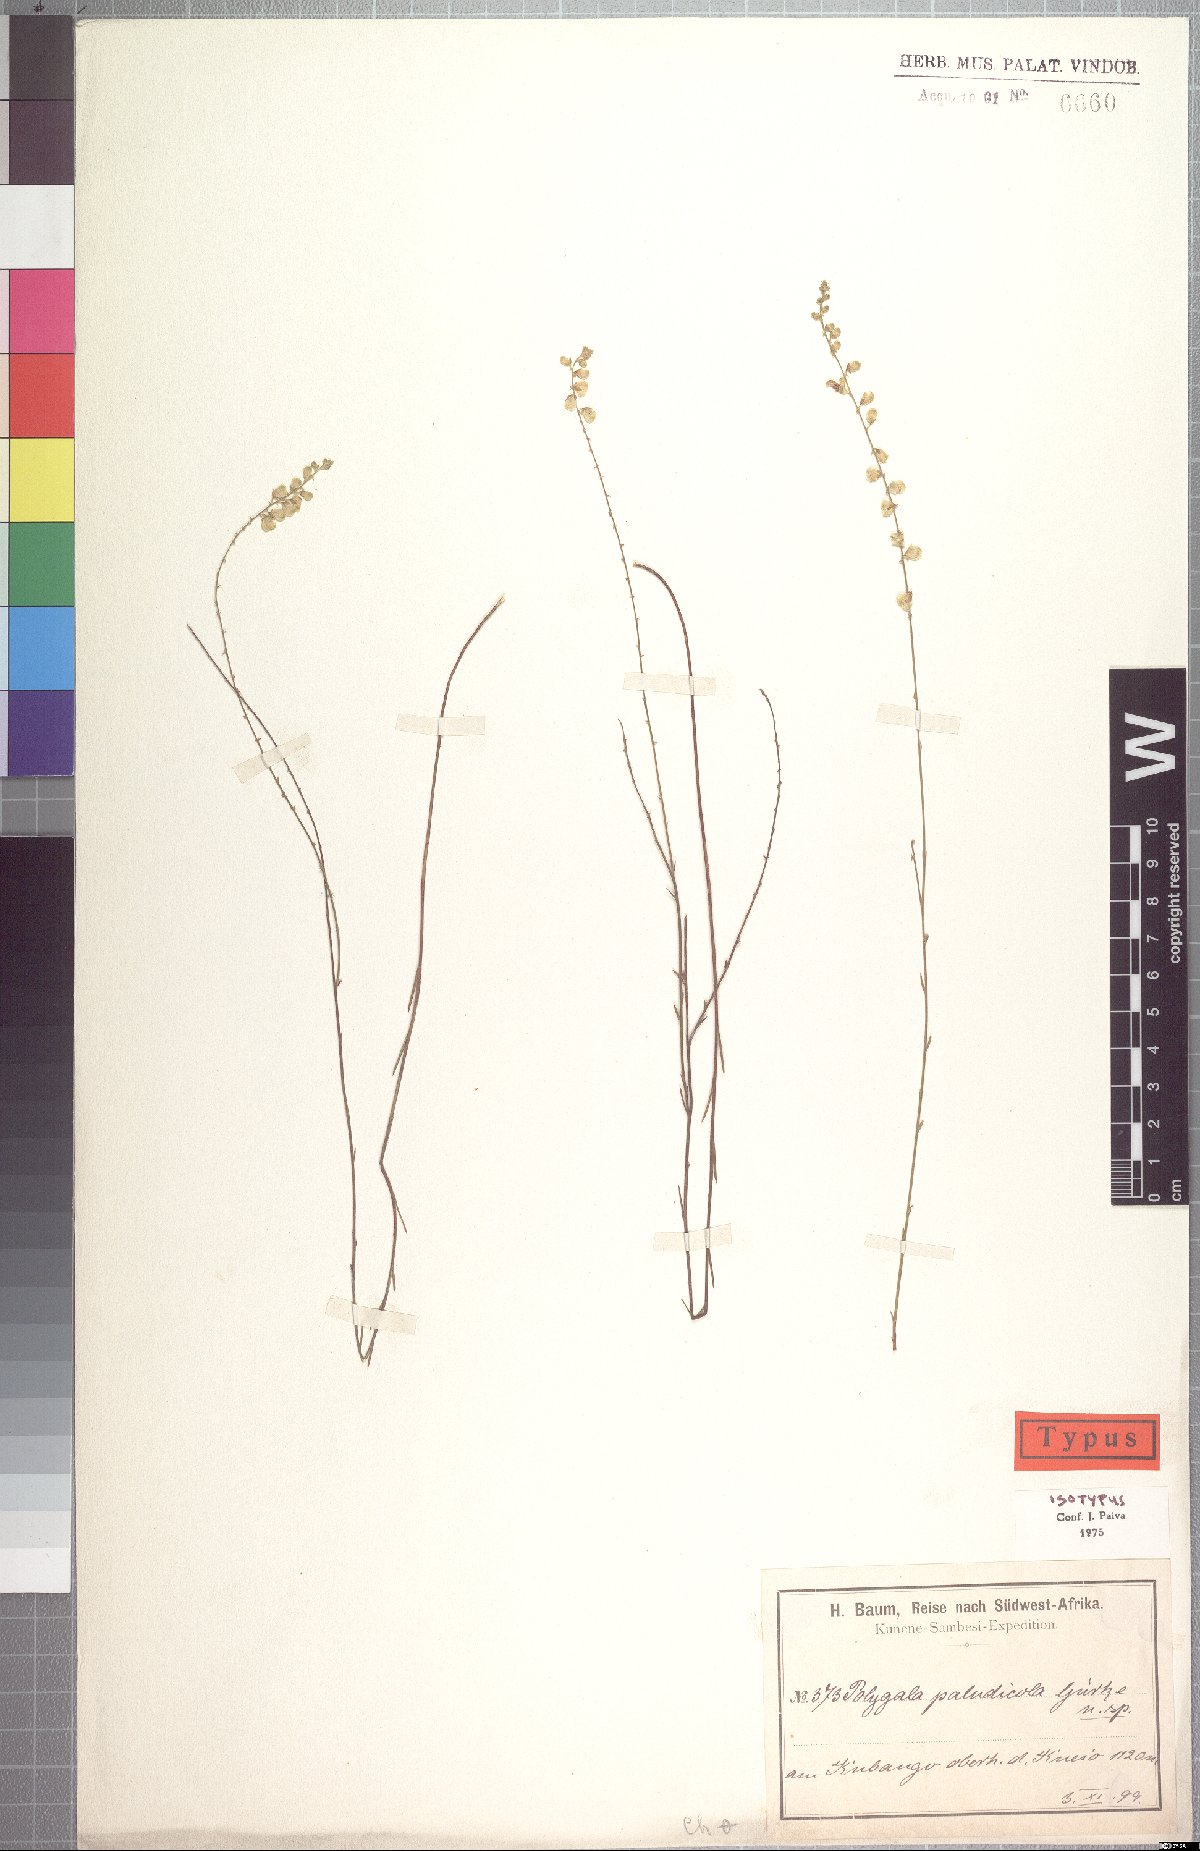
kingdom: Plantae
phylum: Tracheophyta
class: Magnoliopsida
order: Fabales
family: Polygalaceae
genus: Polygala
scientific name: Polygala paludicola
